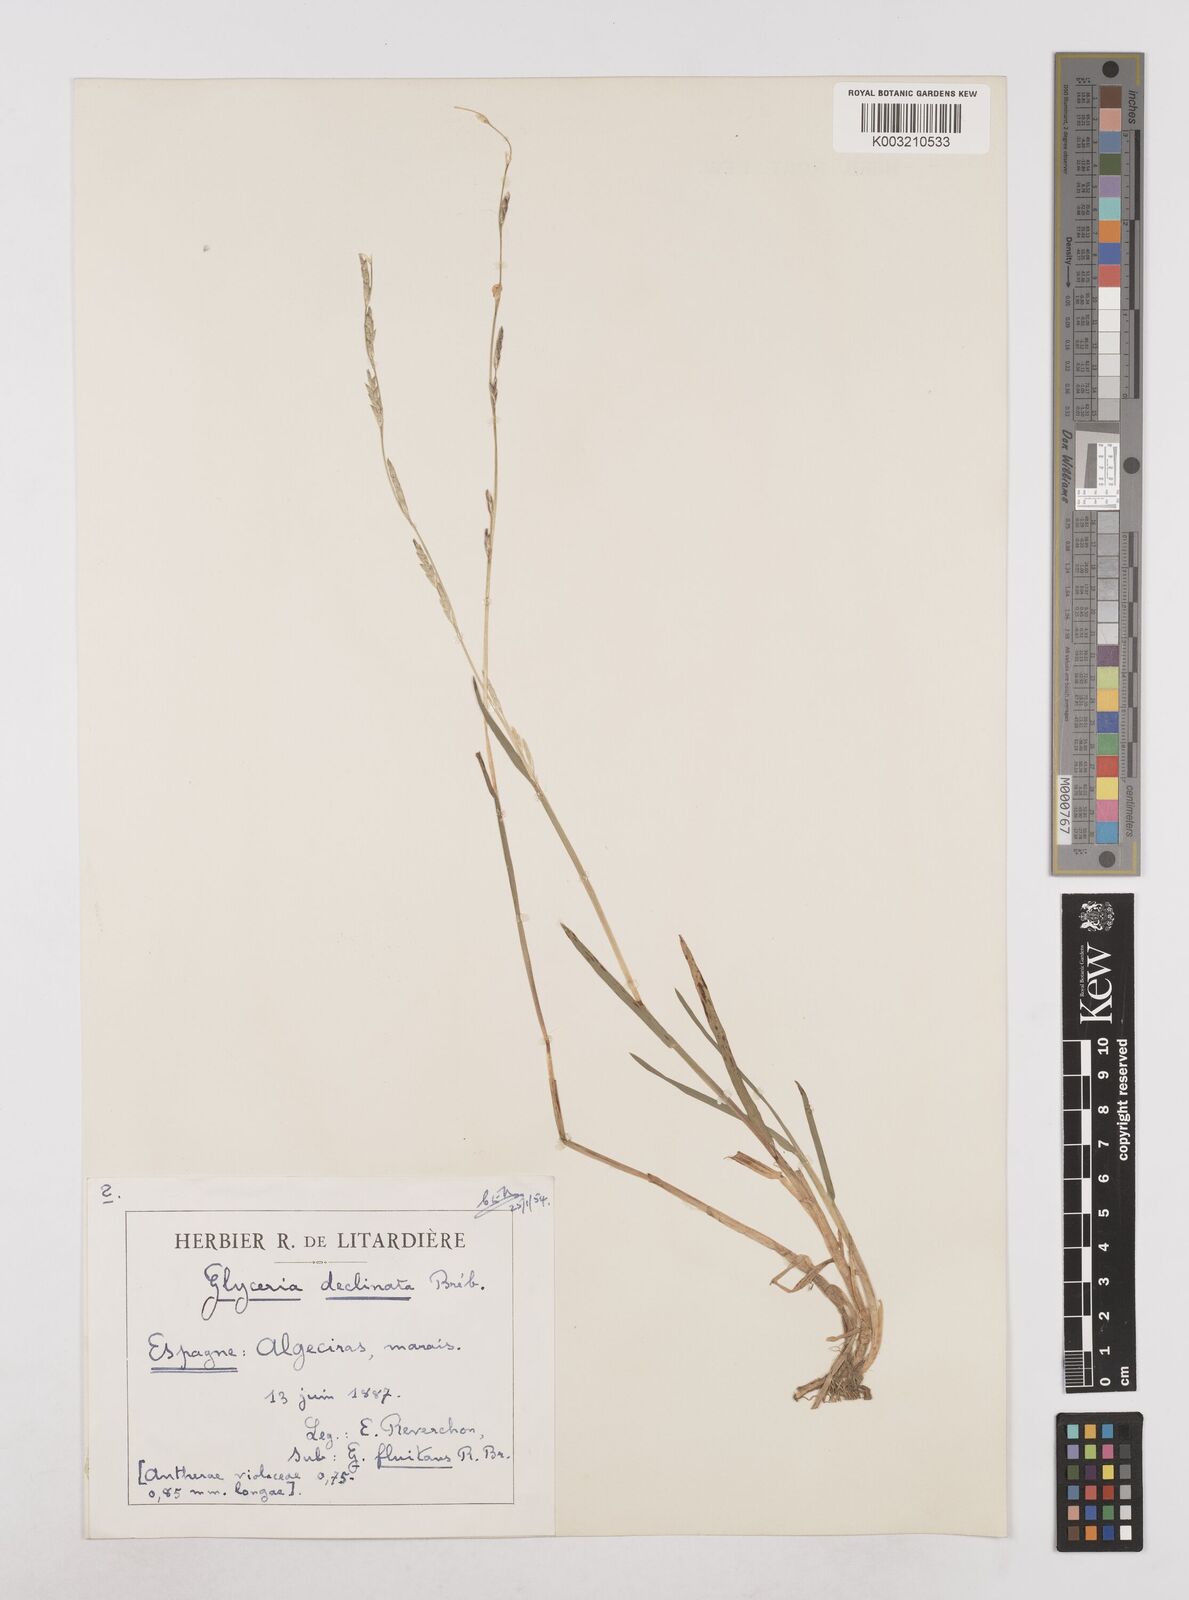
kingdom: Plantae
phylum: Tracheophyta
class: Liliopsida
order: Poales
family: Poaceae
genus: Glyceria
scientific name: Glyceria declinata
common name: Small sweet-grass
